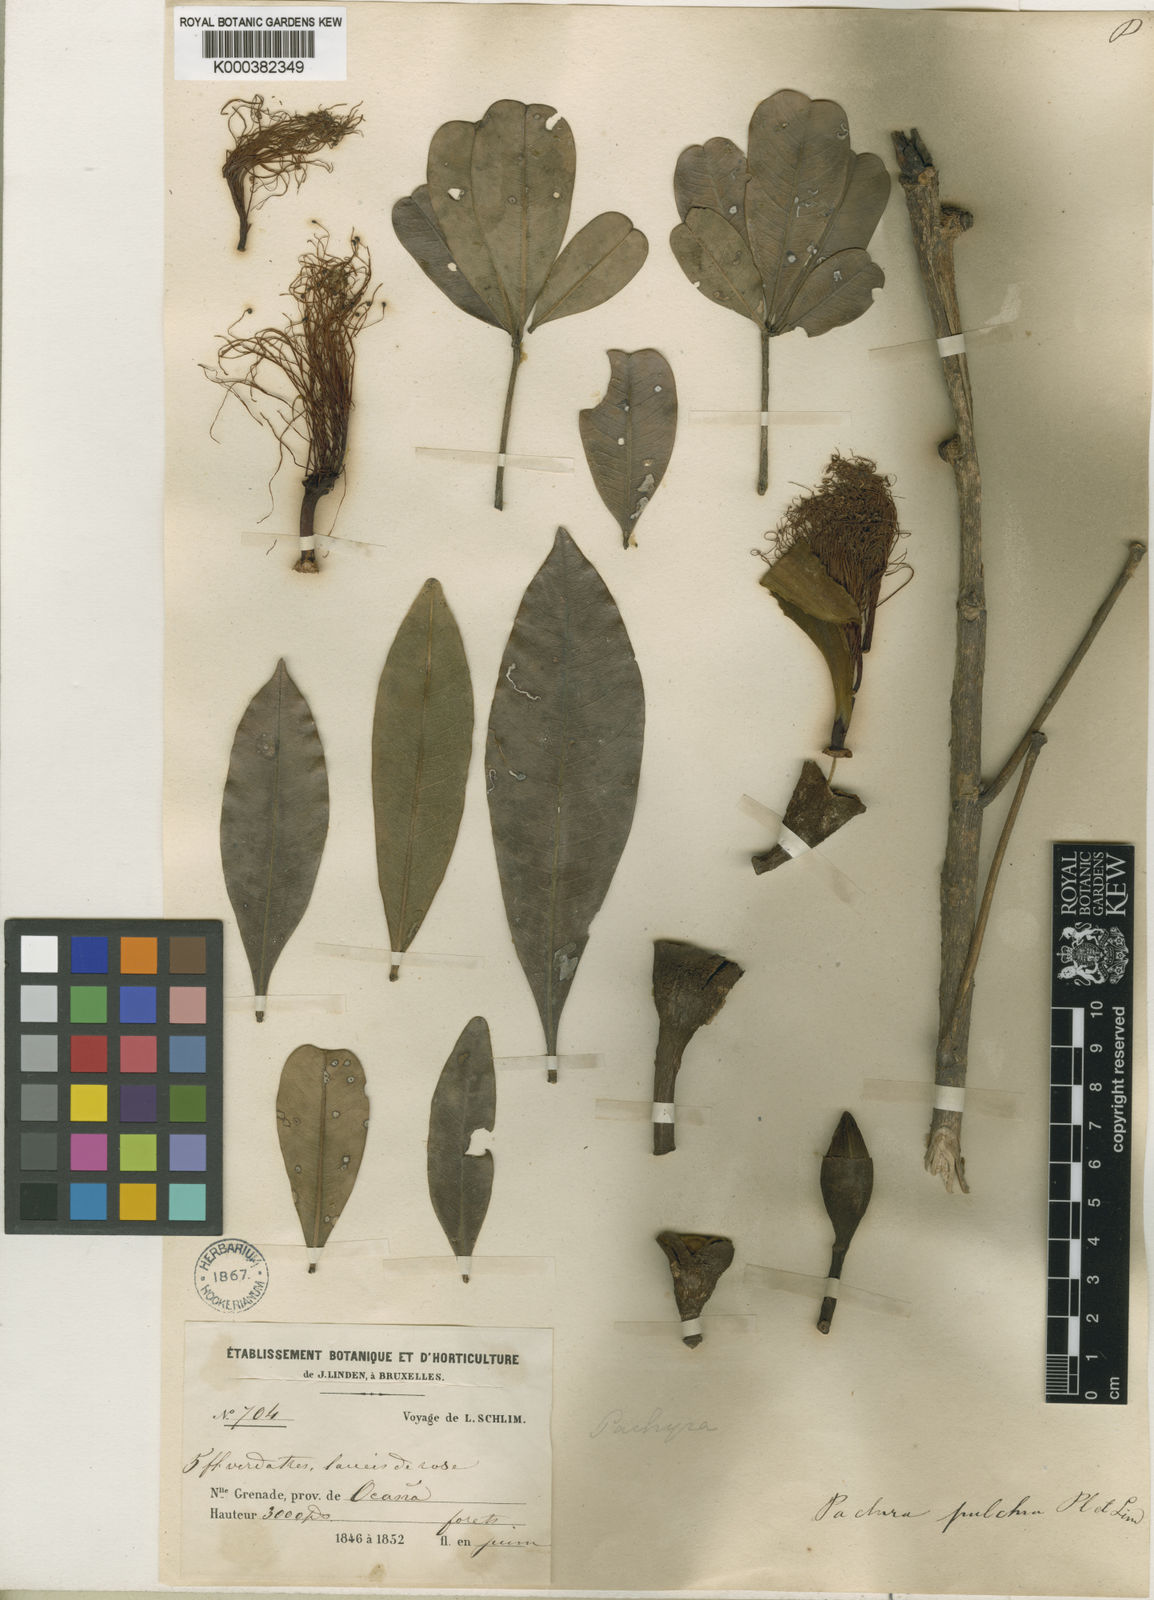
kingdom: Plantae
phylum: Tracheophyta
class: Magnoliopsida
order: Malvales
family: Malvaceae
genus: Pachira
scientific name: Pachira pulchra
